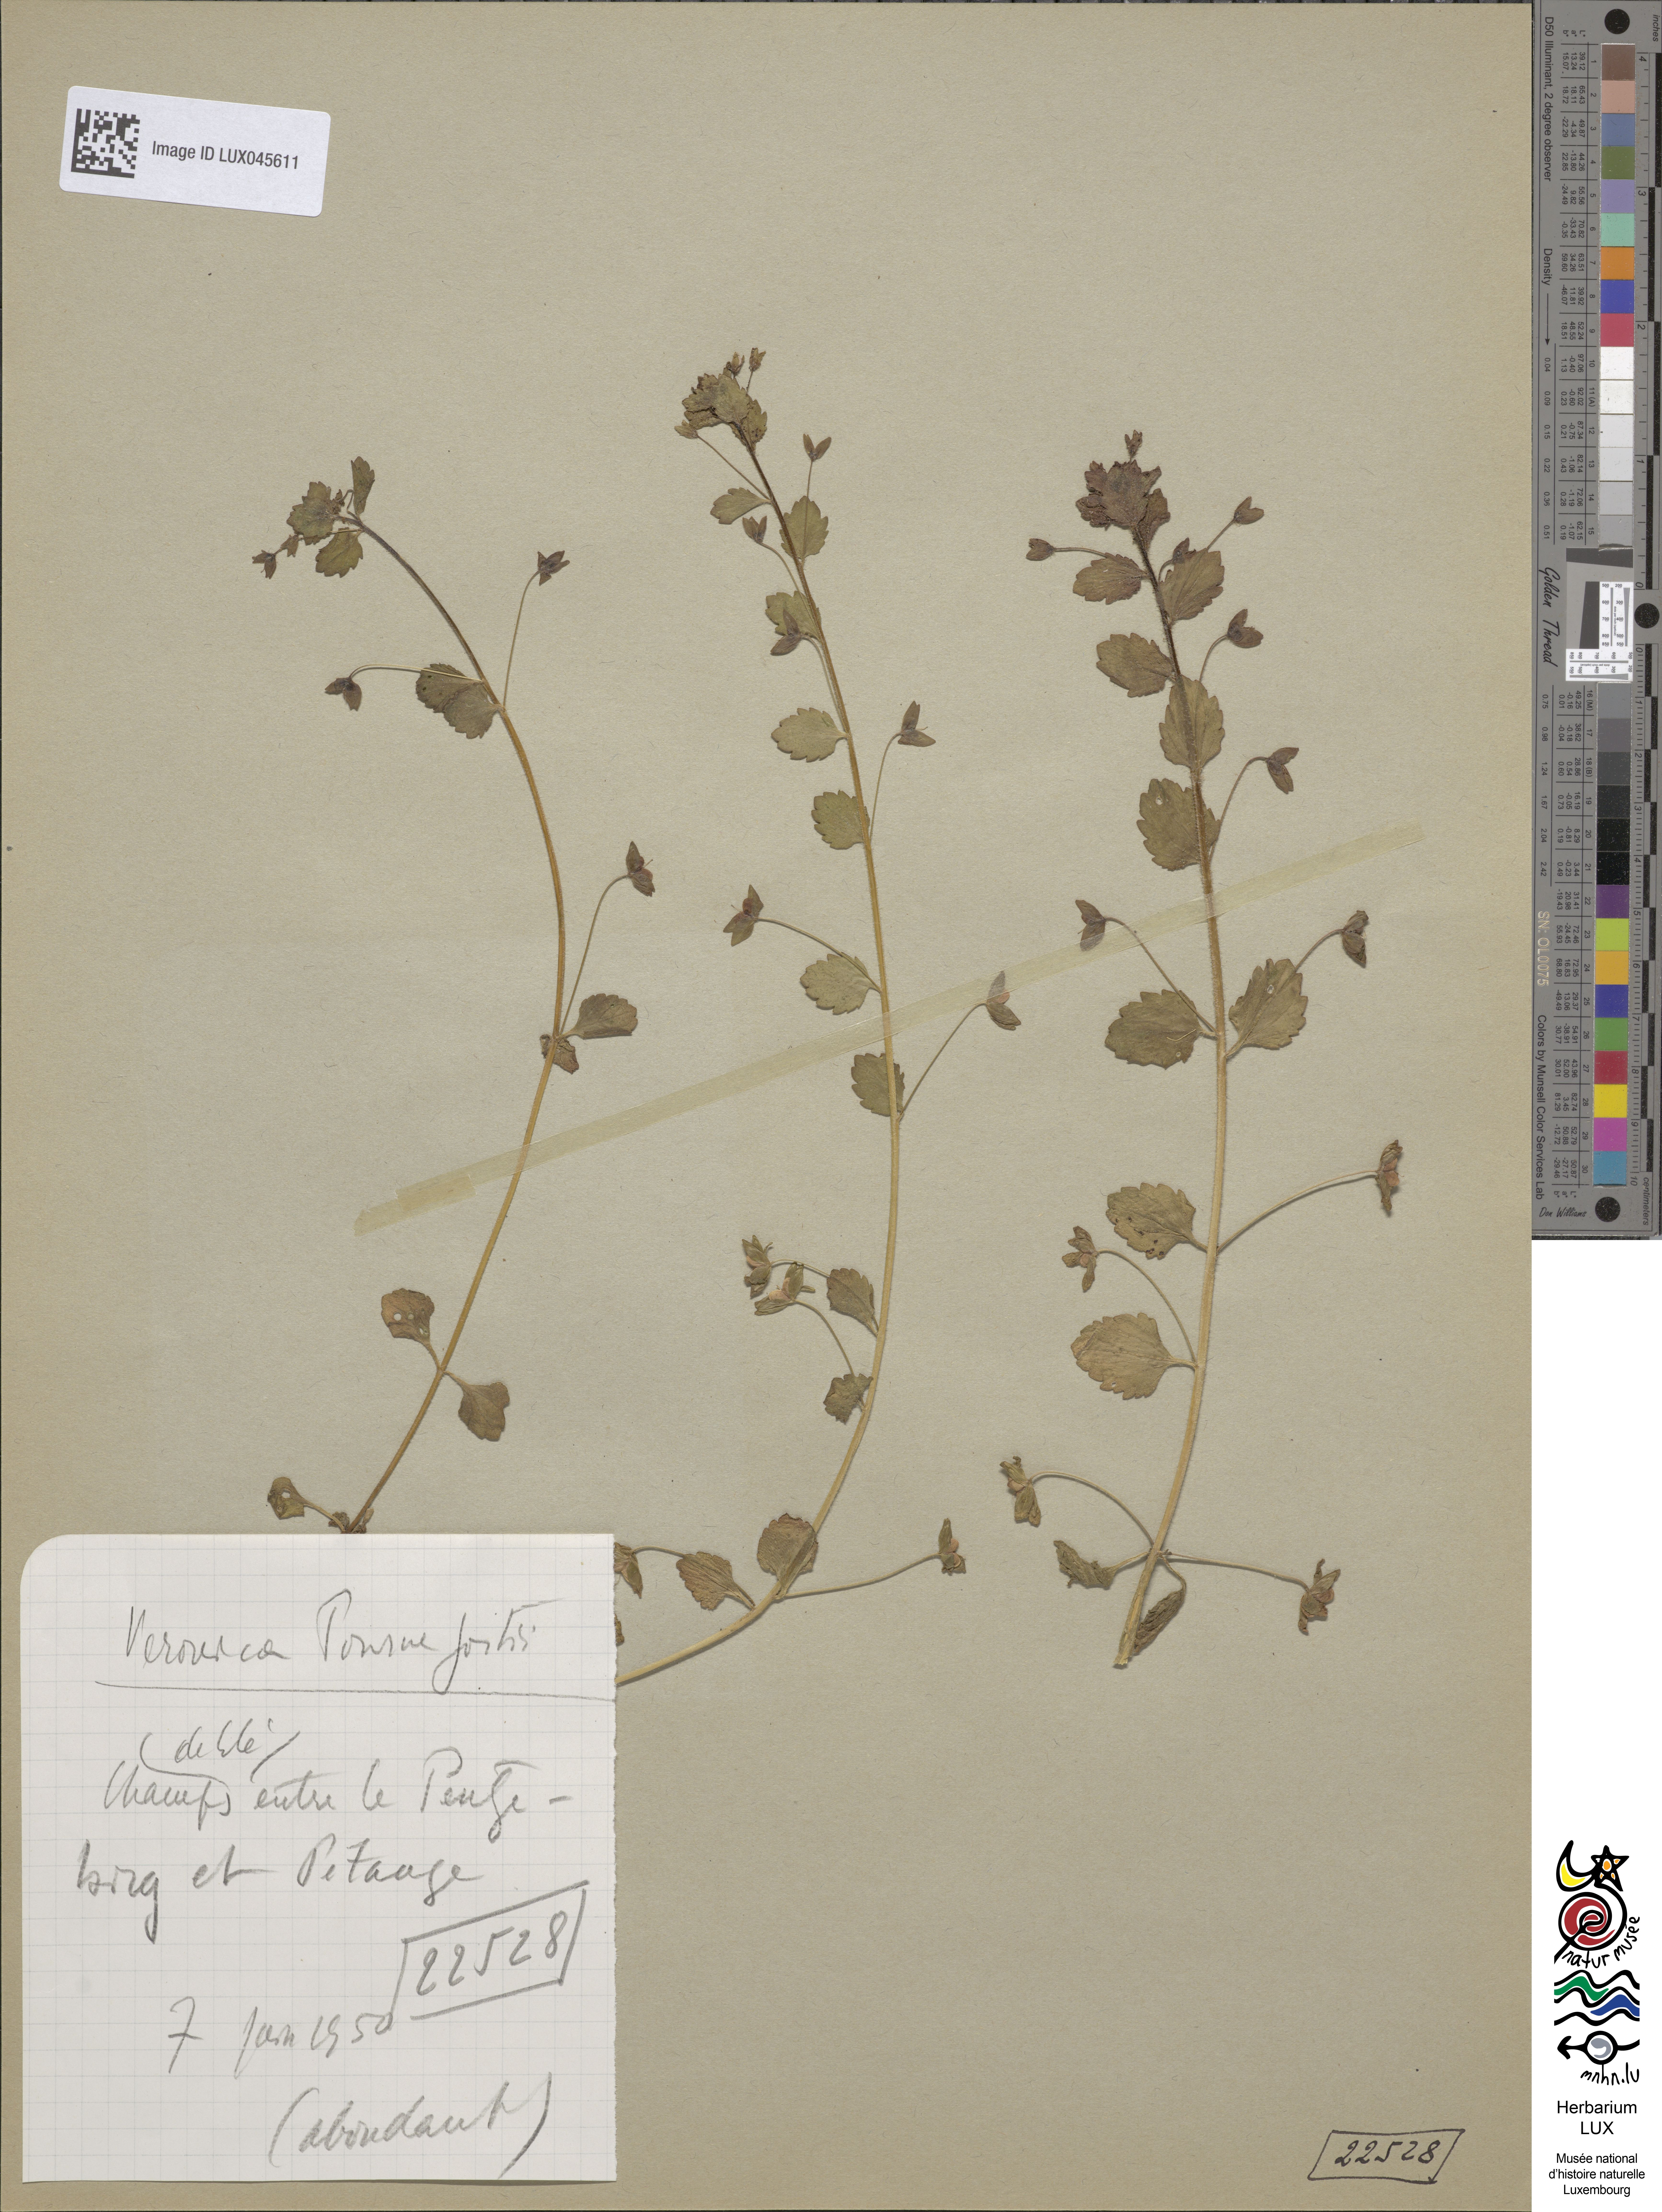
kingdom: Plantae
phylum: Tracheophyta
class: Magnoliopsida
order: Lamiales
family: Plantaginaceae
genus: Veronica
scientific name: Veronica persica
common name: Common field-speedwell
